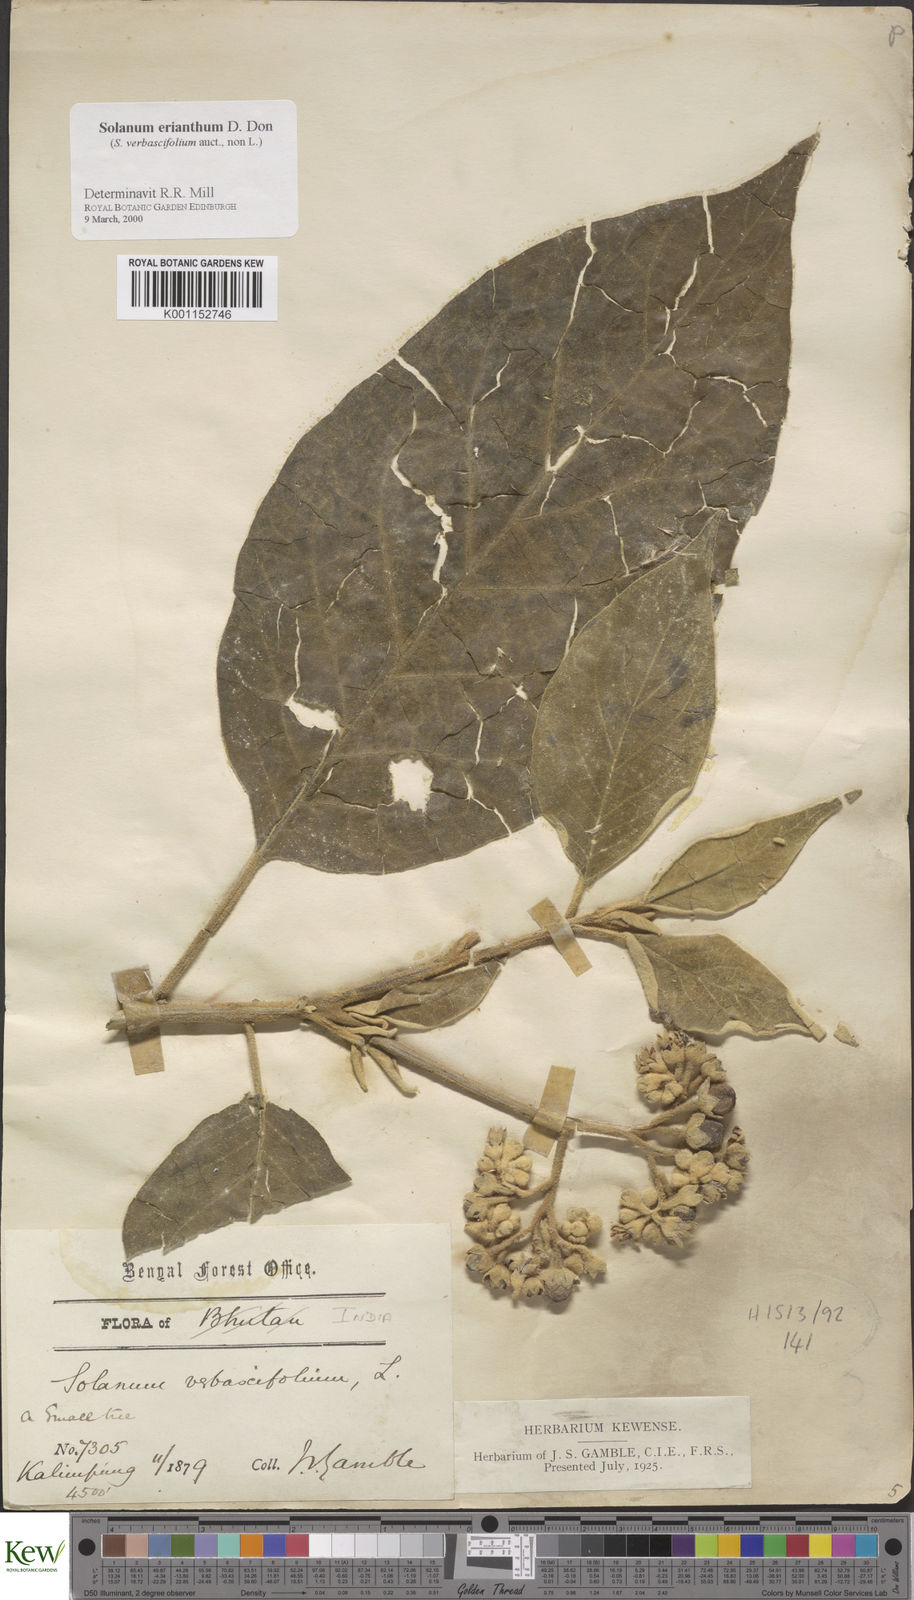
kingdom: Plantae
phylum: Tracheophyta
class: Magnoliopsida
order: Solanales
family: Solanaceae
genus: Solanum
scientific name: Solanum erianthum
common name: Tobacco-tree
